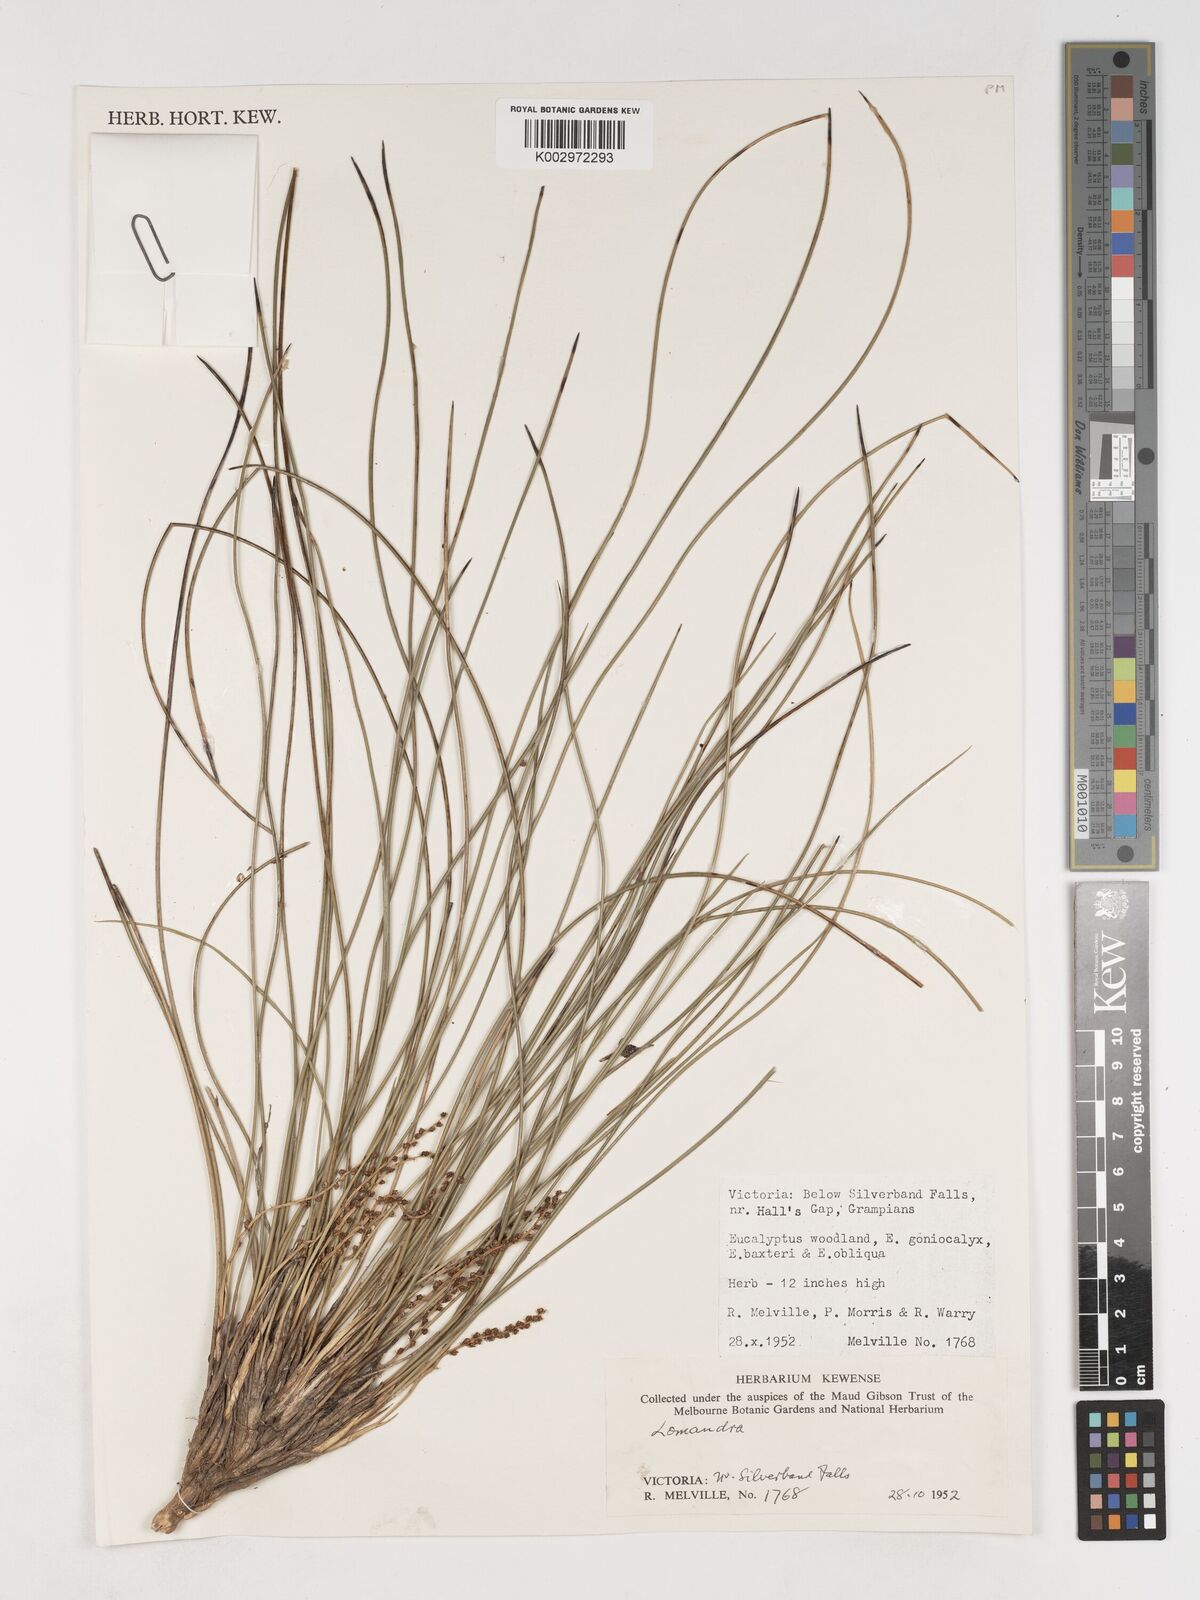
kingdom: Plantae
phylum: Tracheophyta
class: Liliopsida
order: Asparagales
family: Asparagaceae
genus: Lomandra
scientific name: Lomandra
